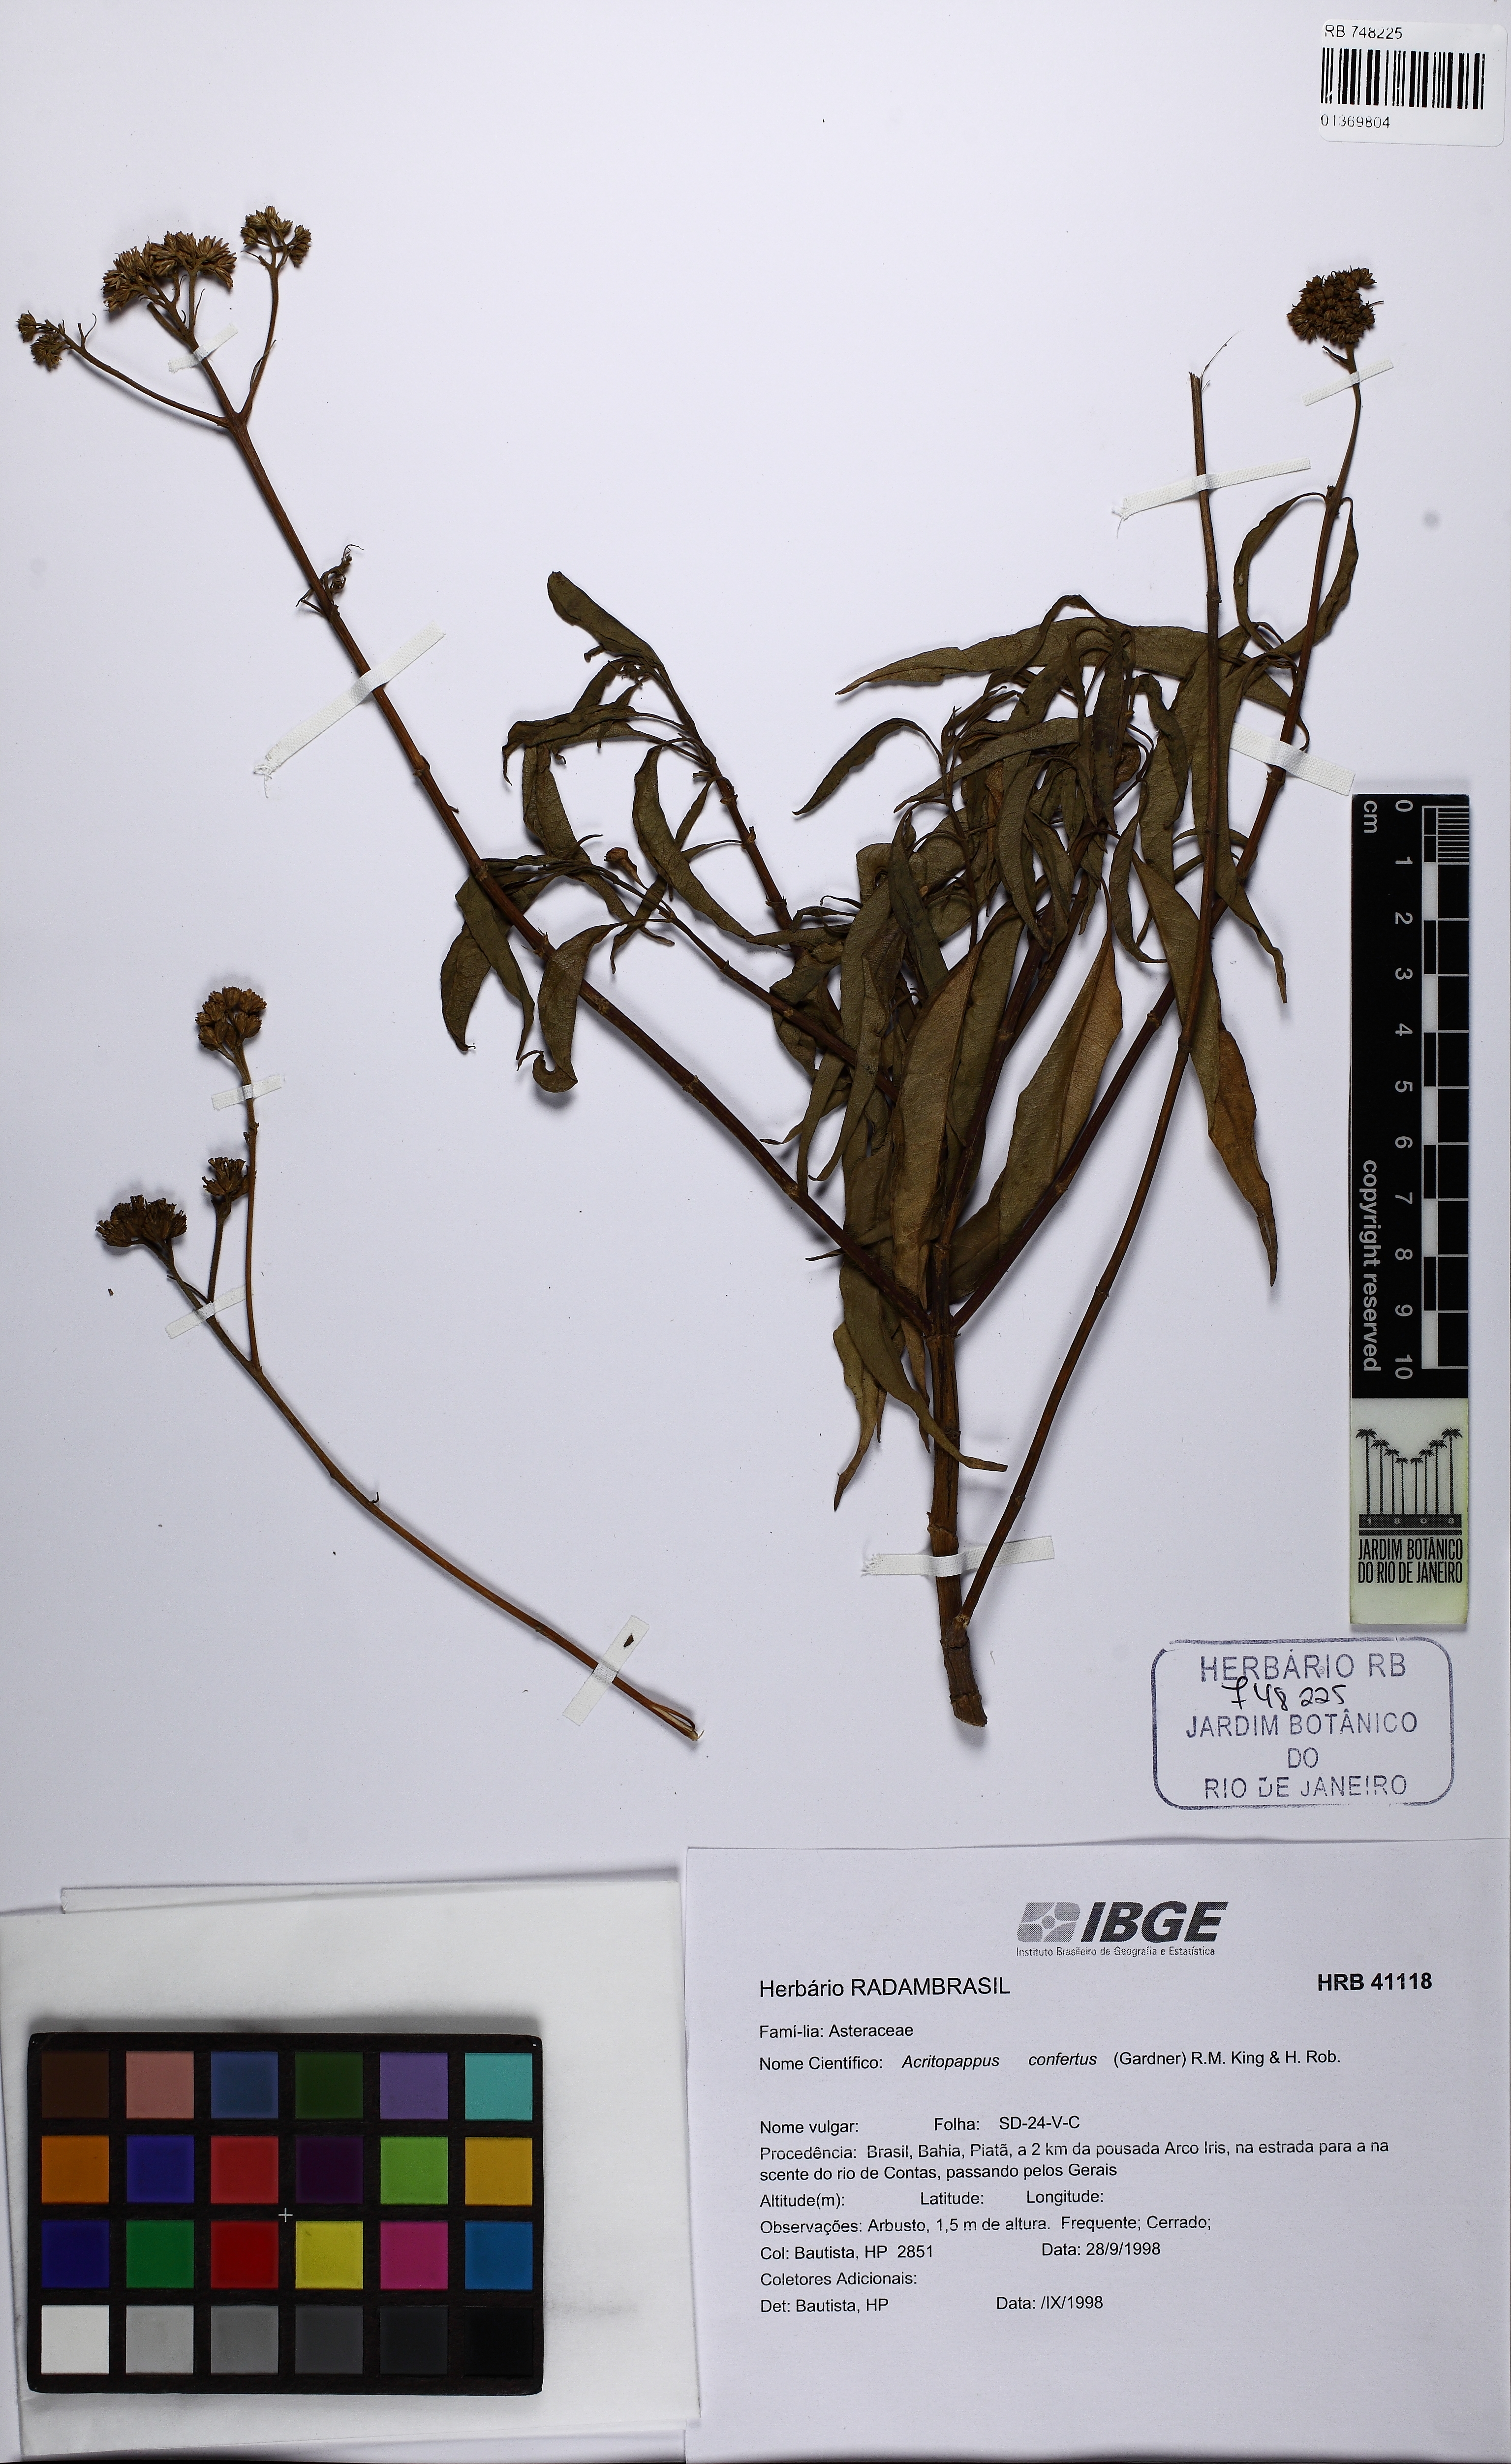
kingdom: Plantae
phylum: Tracheophyta
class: Magnoliopsida
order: Asterales
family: Asteraceae
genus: Acritopappus
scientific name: Acritopappus confertus
